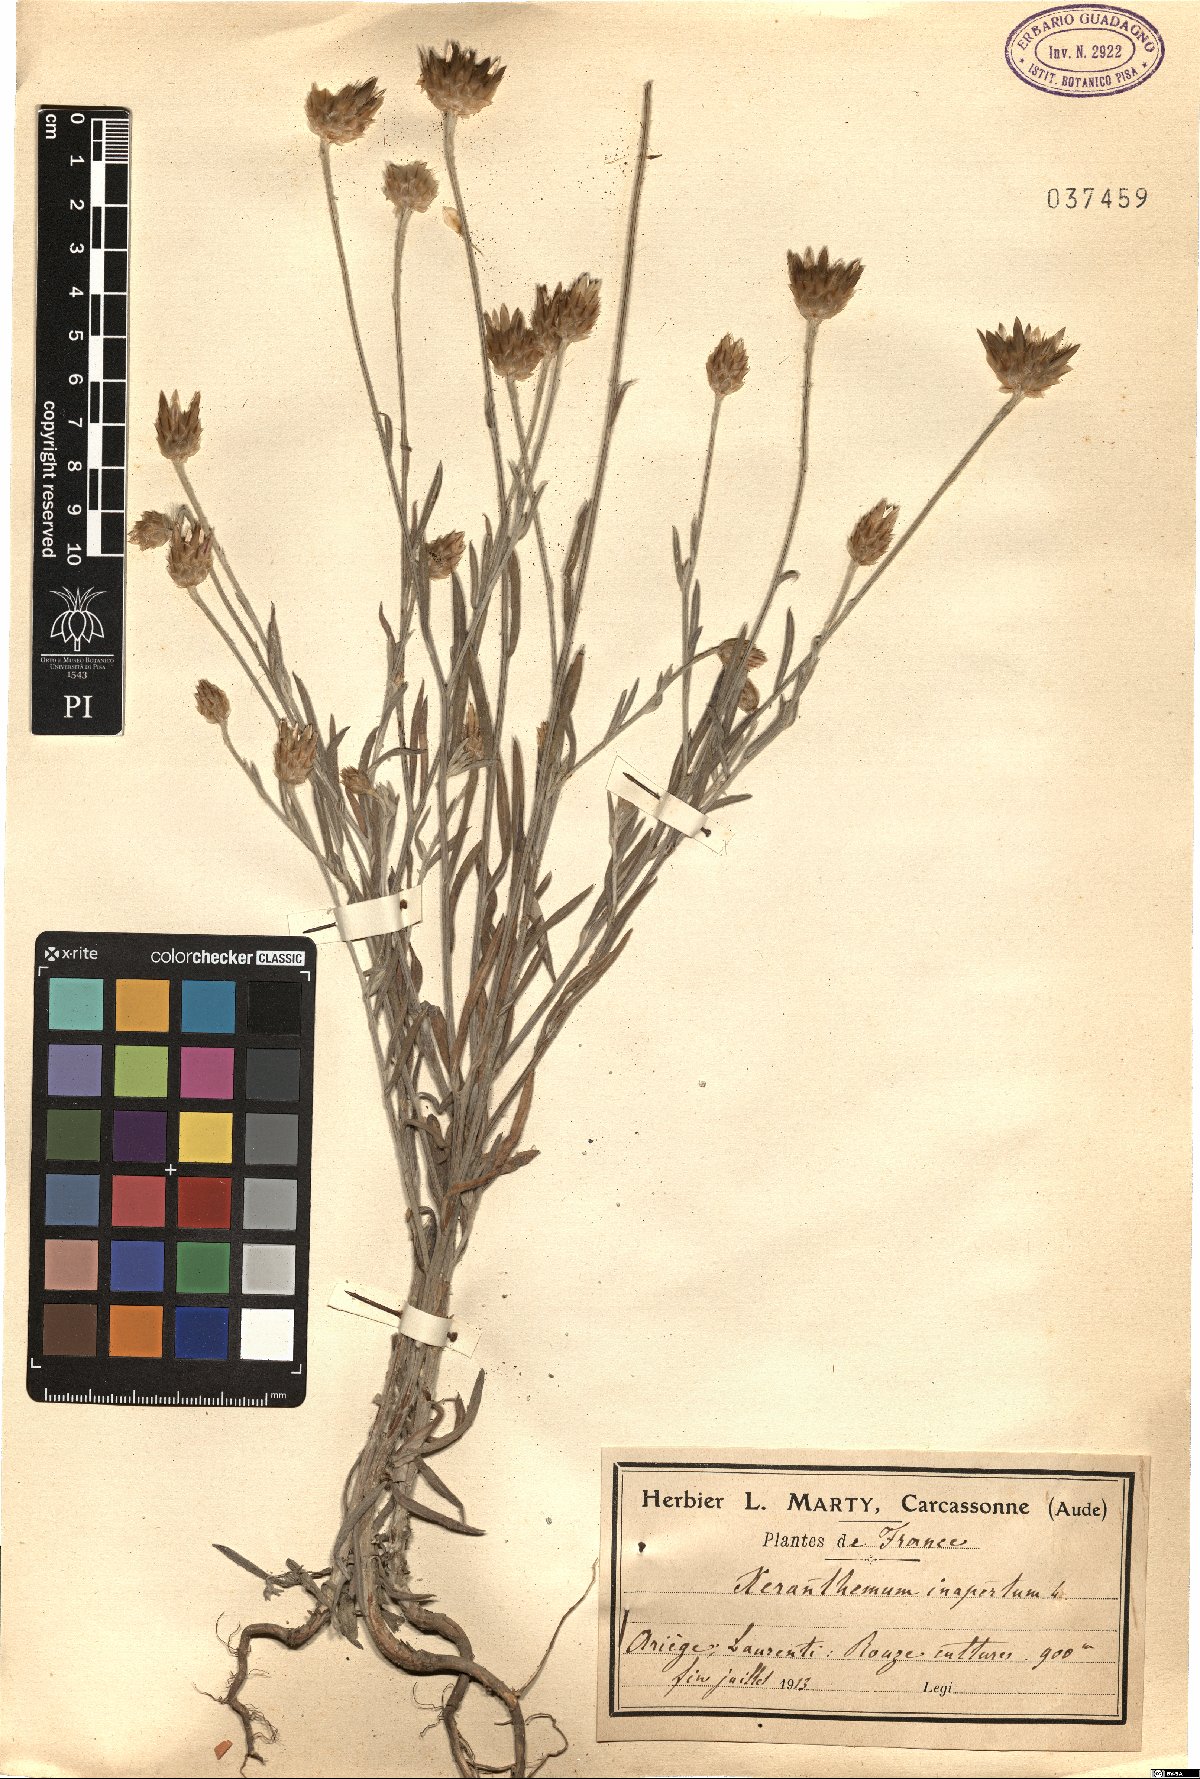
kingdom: Plantae
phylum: Tracheophyta
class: Magnoliopsida
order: Asterales
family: Asteraceae
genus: Xeranthemum
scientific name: Xeranthemum inapertum
